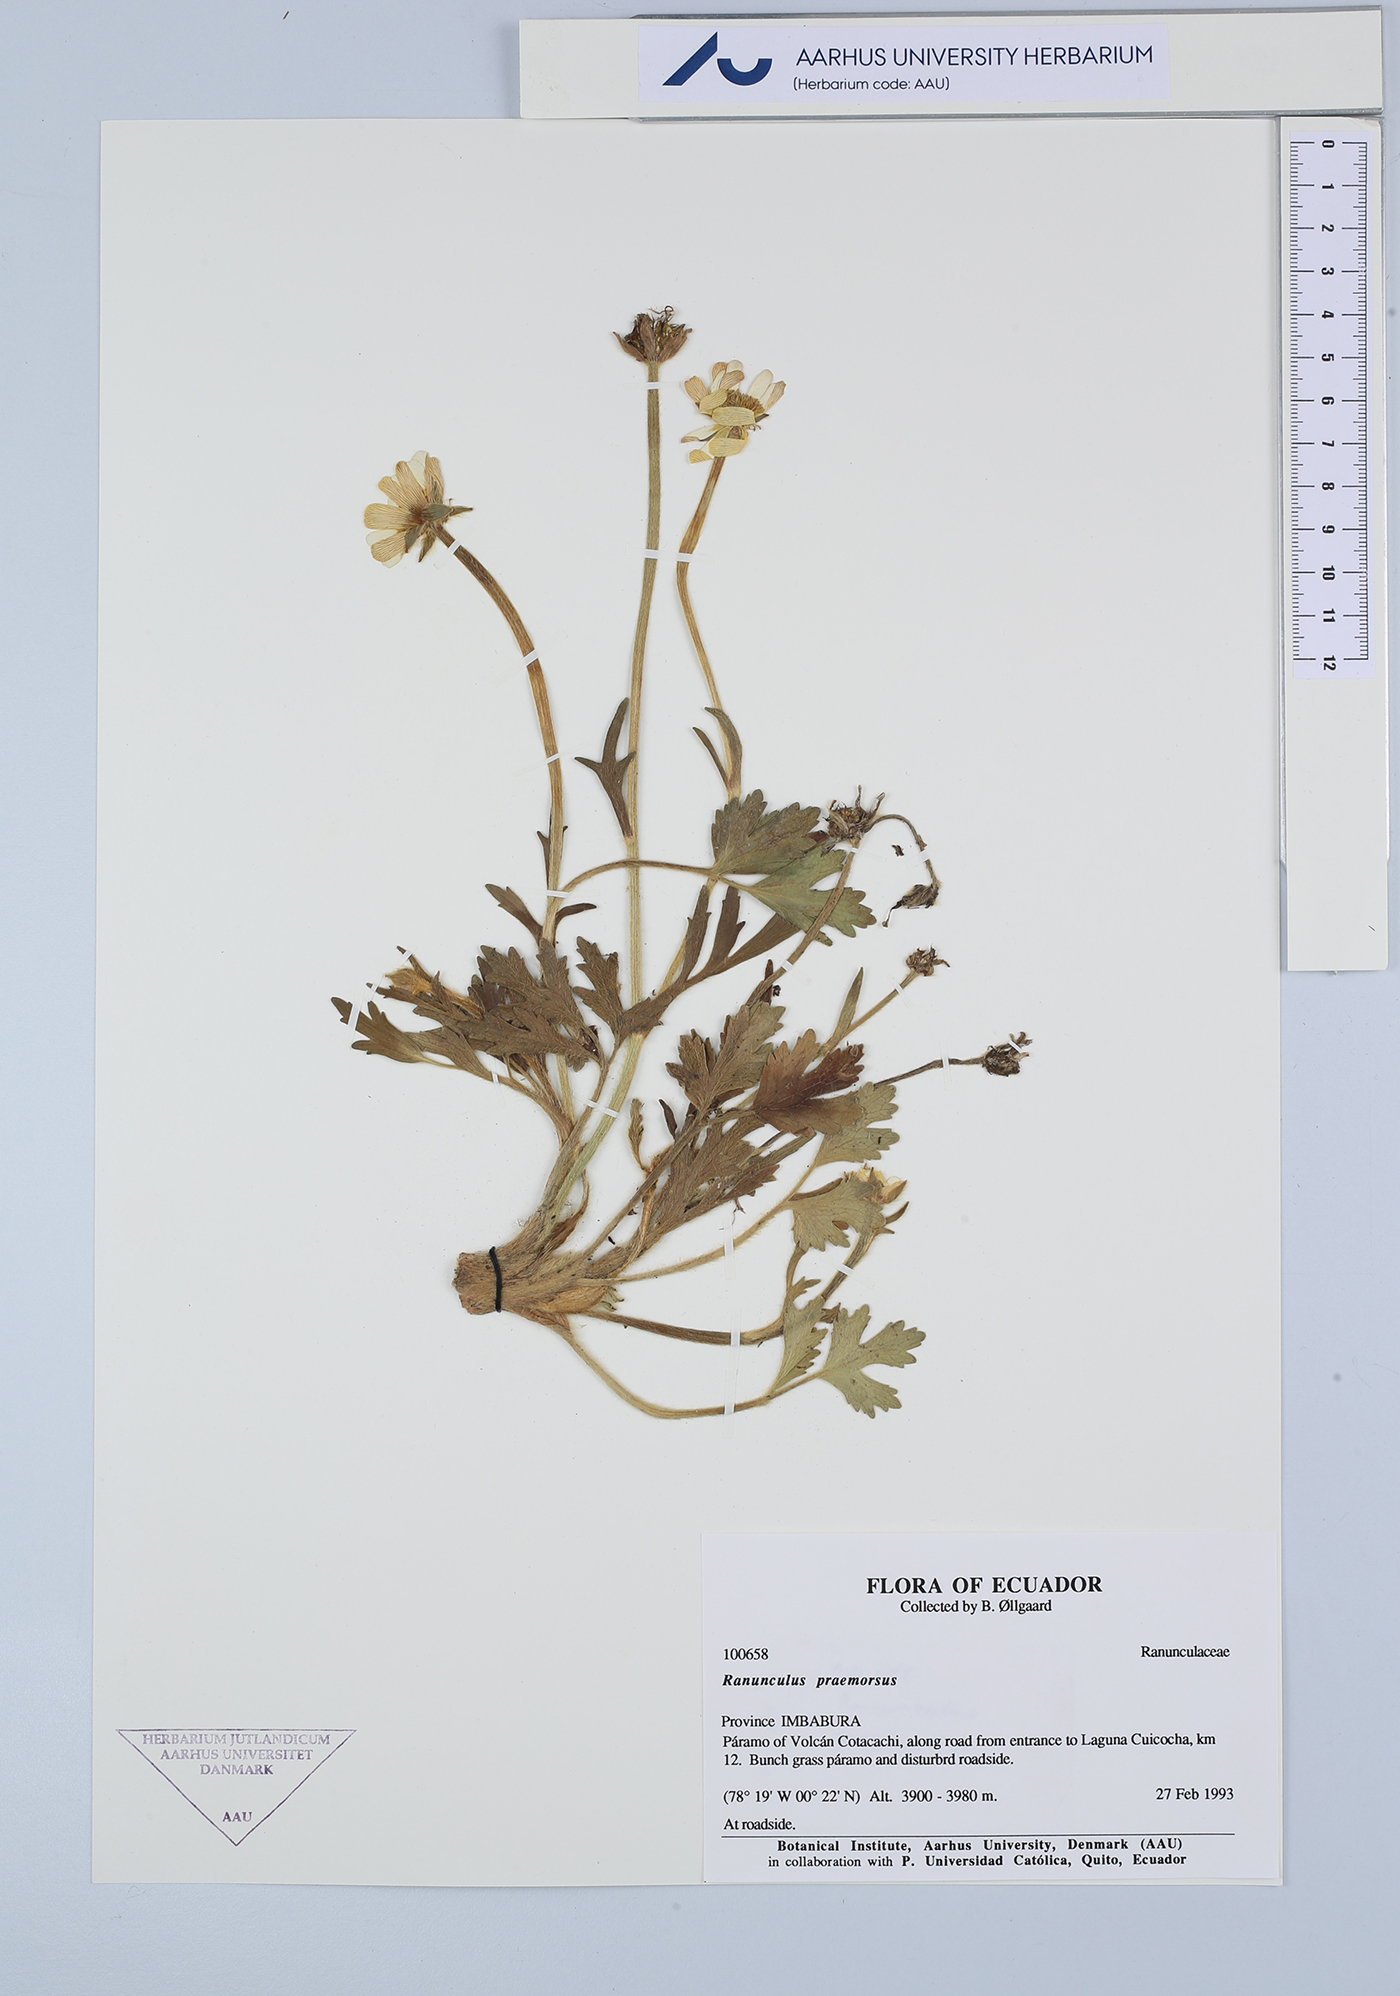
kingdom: Plantae
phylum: Tracheophyta
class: Magnoliopsida
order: Ranunculales
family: Ranunculaceae
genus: Ranunculus
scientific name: Ranunculus praemorsus
